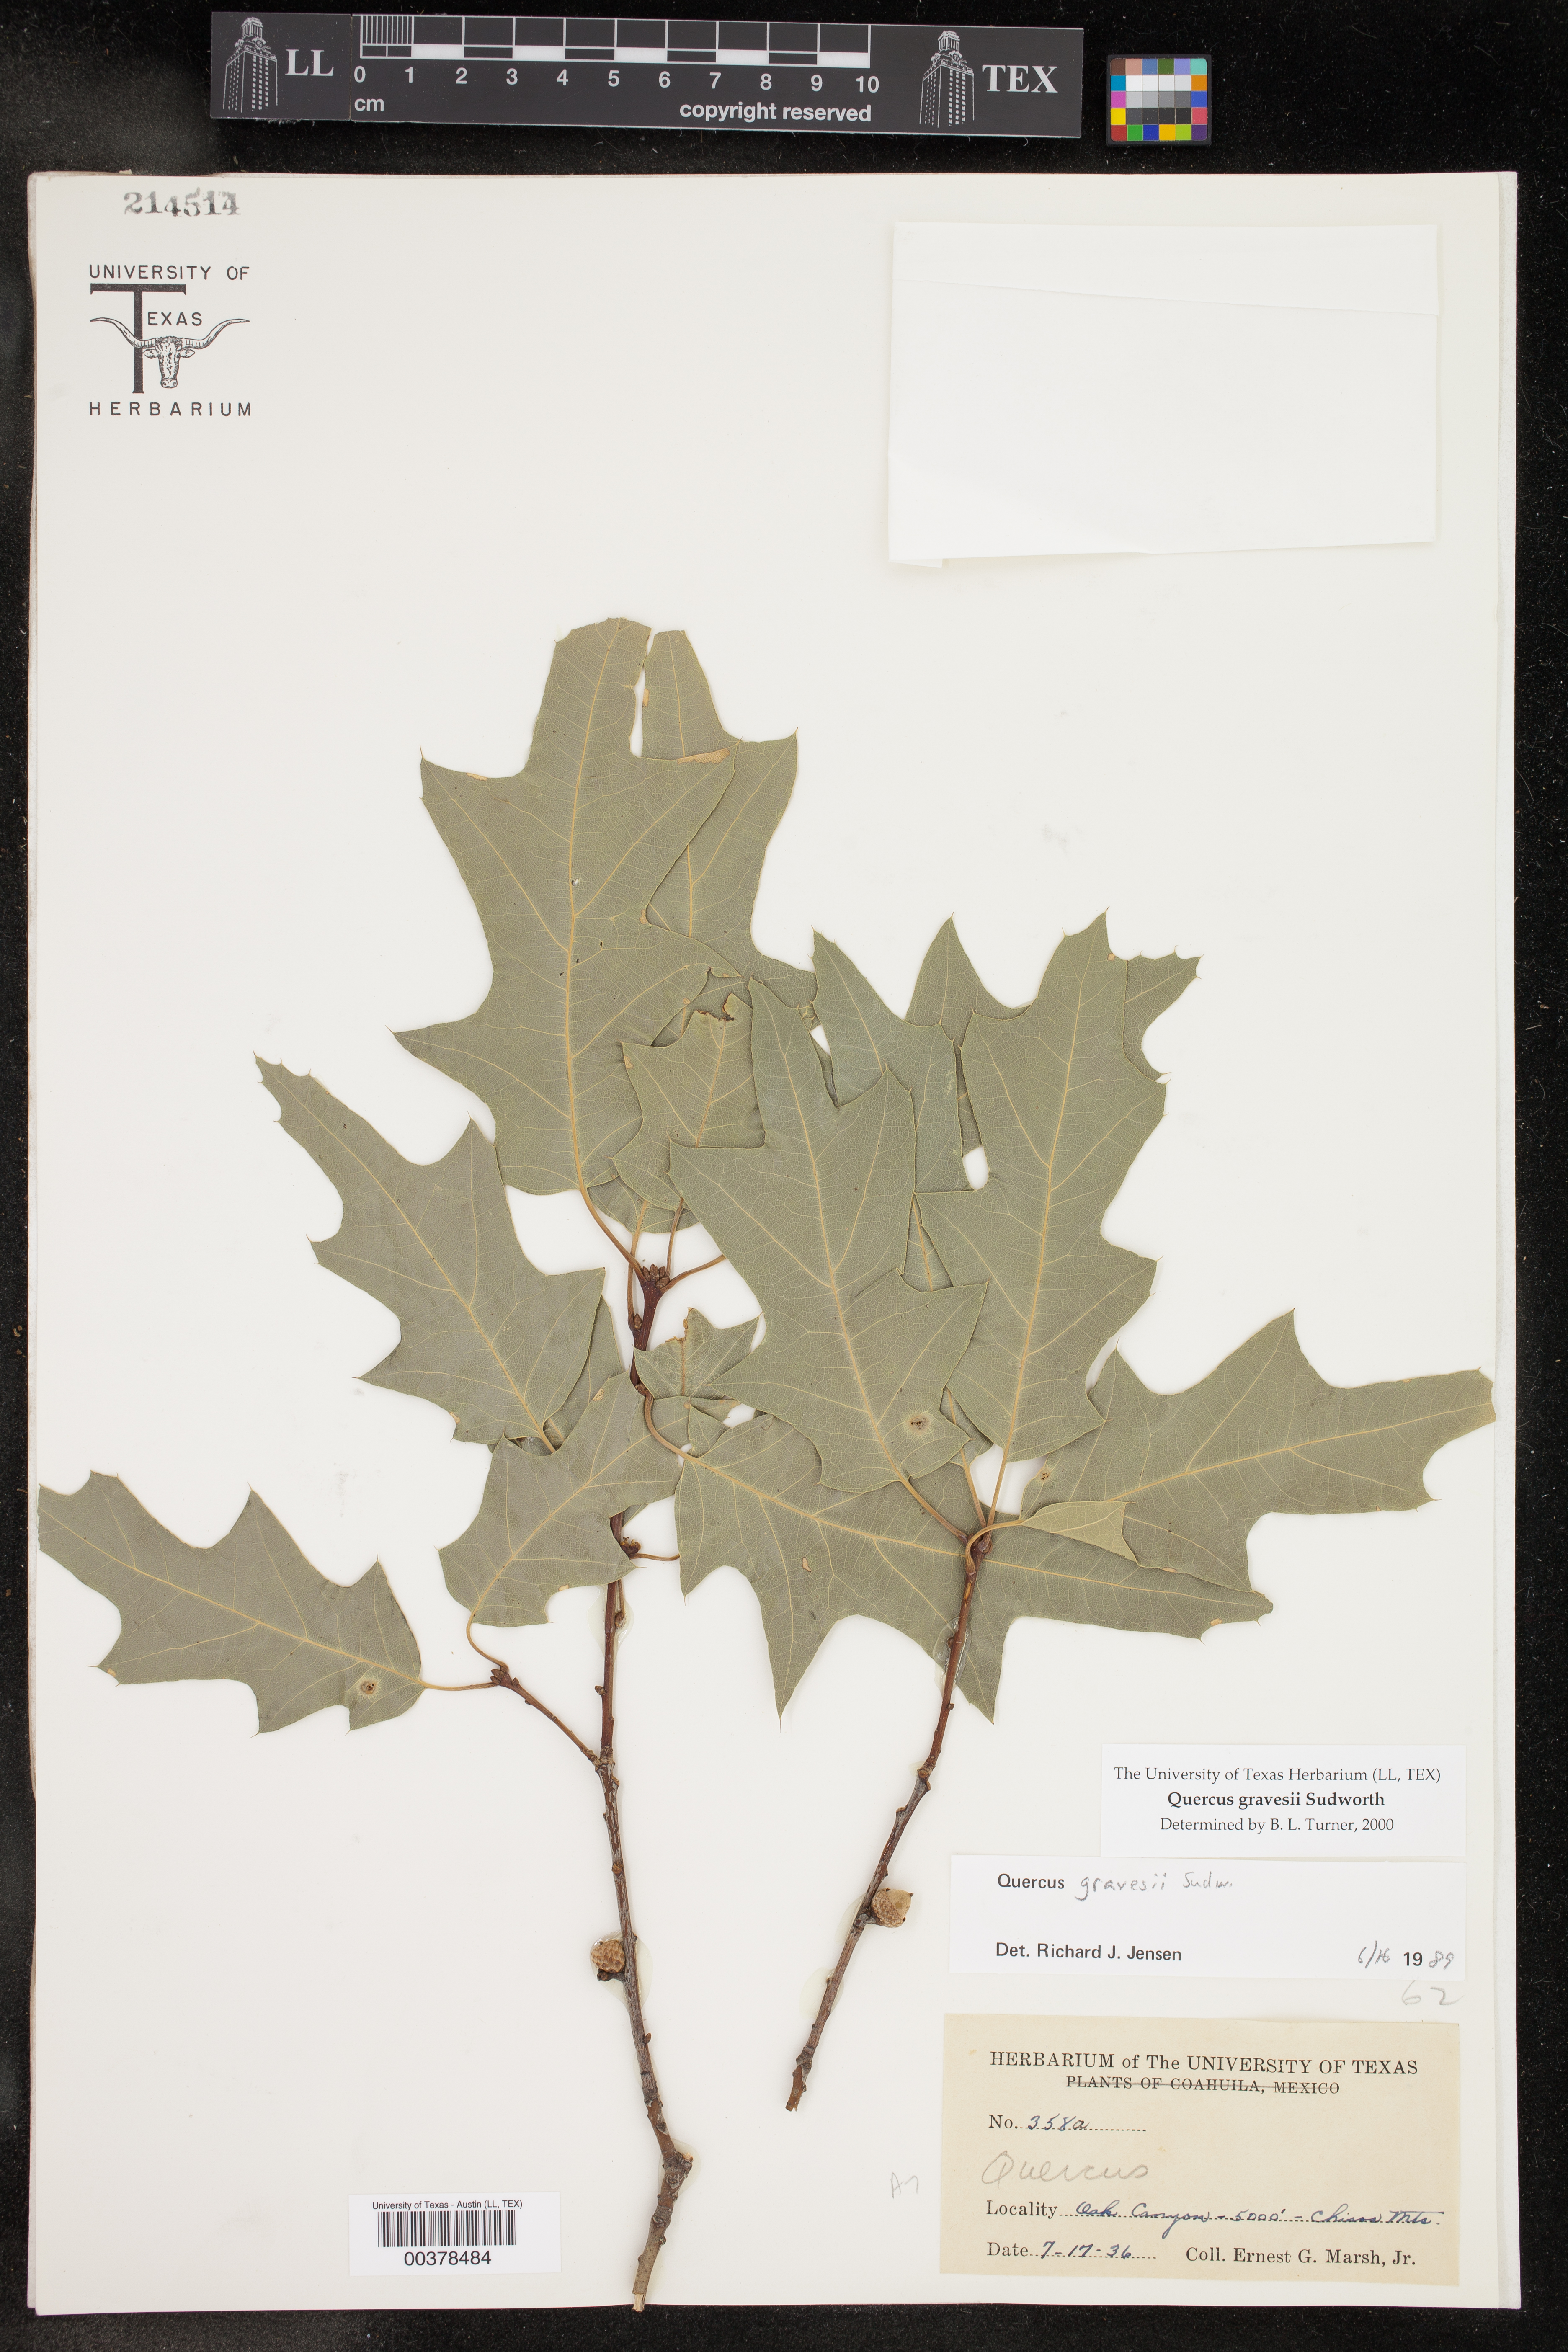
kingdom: Plantae
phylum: Tracheophyta
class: Magnoliopsida
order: Fagales
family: Fagaceae
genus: Quercus
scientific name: Quercus gravesii
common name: Chisos red oak
